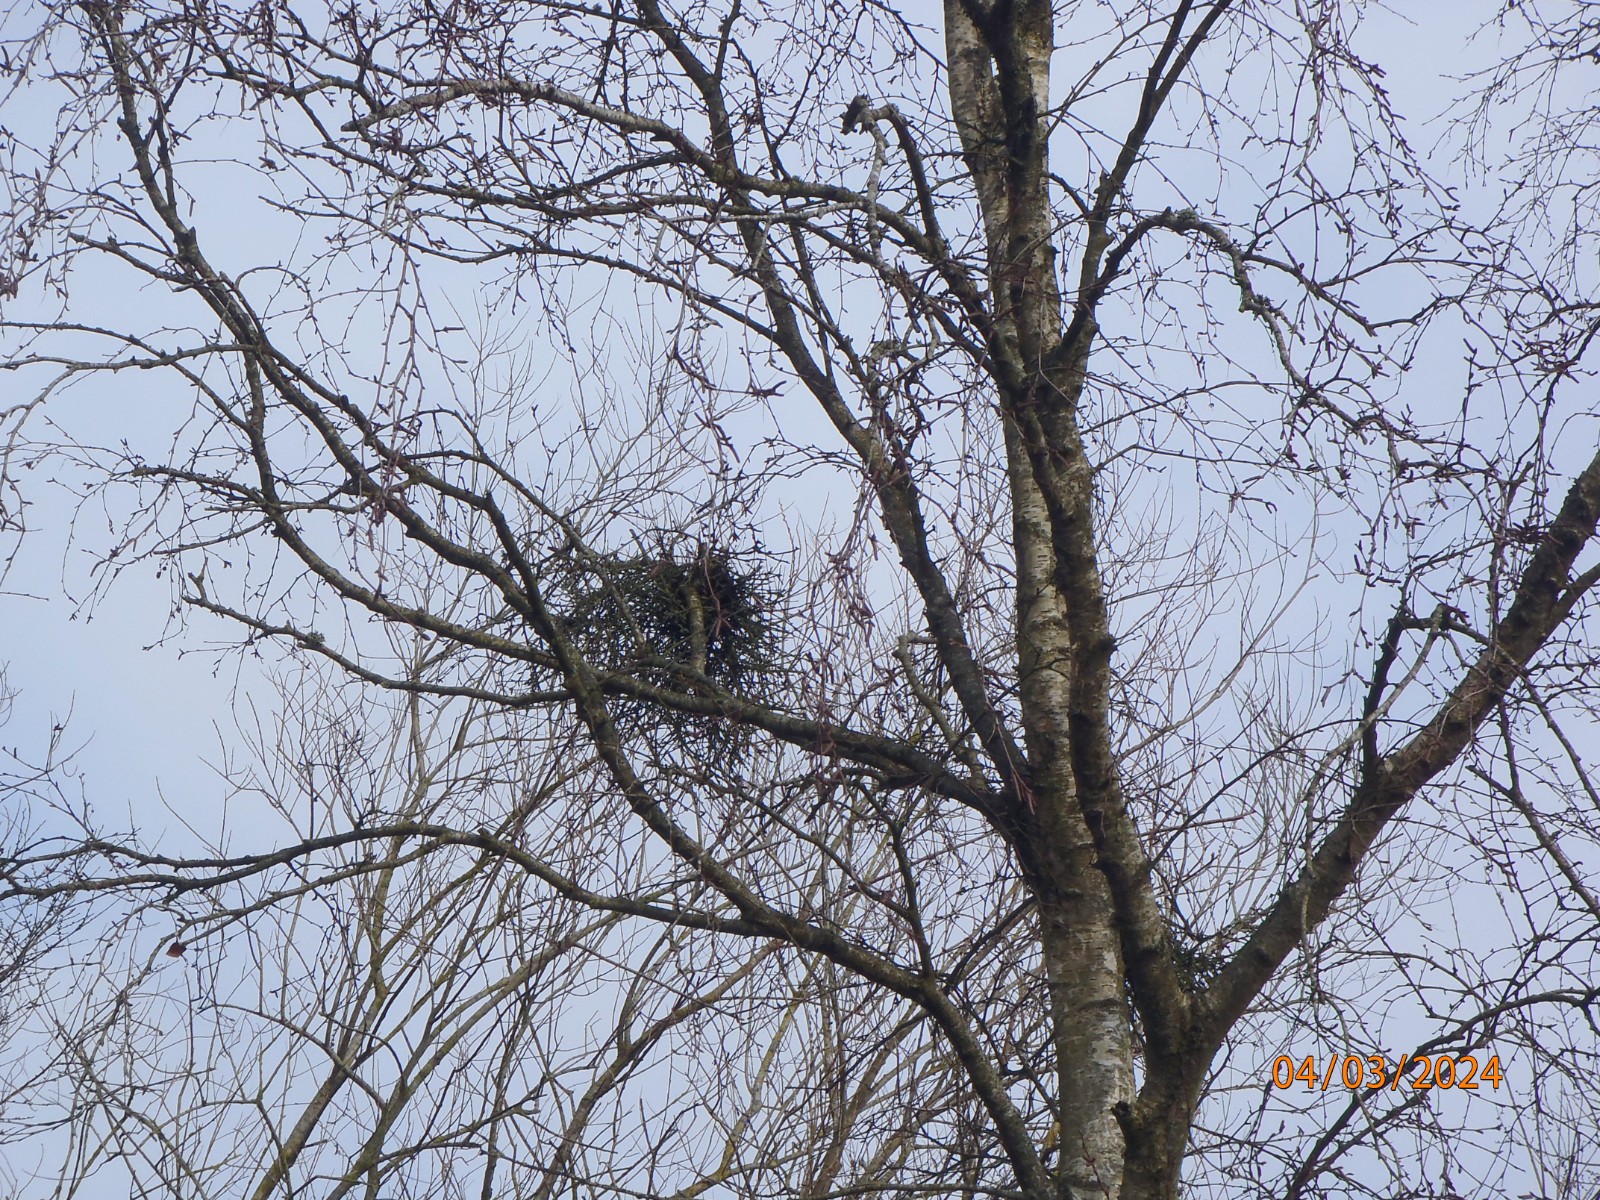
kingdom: Fungi
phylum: Ascomycota
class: Taphrinomycetes
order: Taphrinales
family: Taphrinaceae
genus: Taphrina
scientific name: Taphrina betulina
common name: hekse-sækdug
